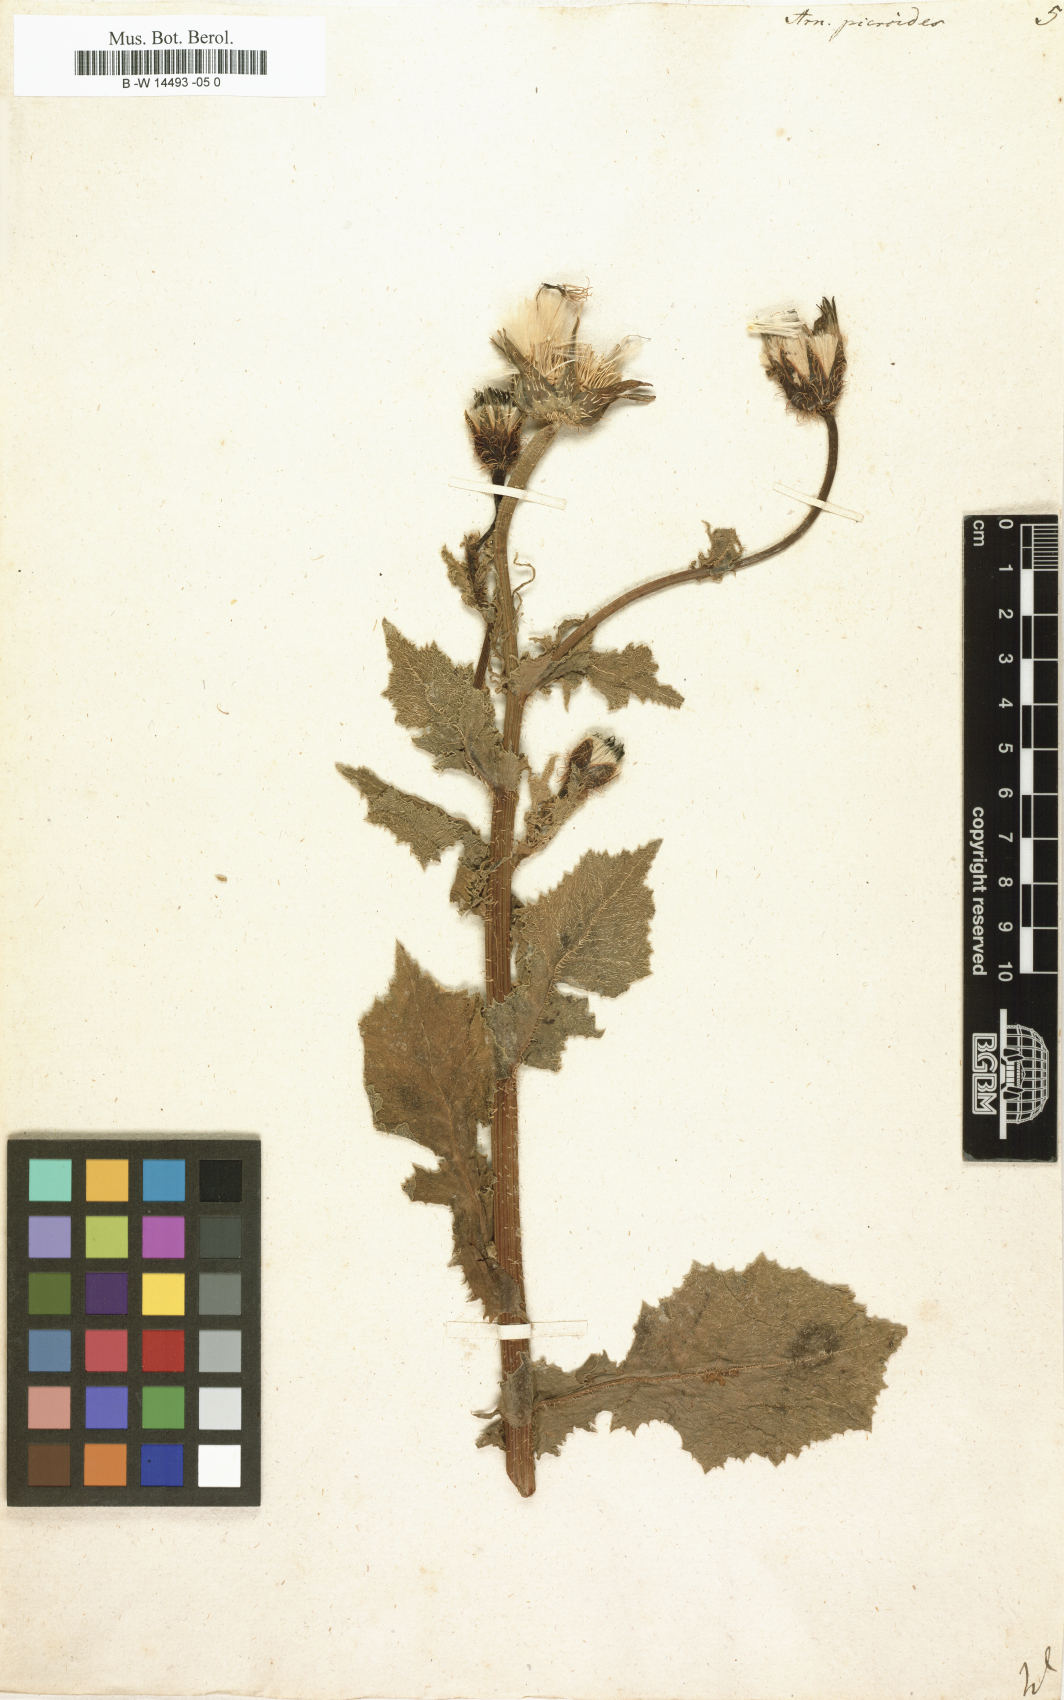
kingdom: Plantae
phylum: Tracheophyta
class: Magnoliopsida
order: Asterales
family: Asteraceae
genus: Urospermum
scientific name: Urospermum picroides
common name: False hawkbit
